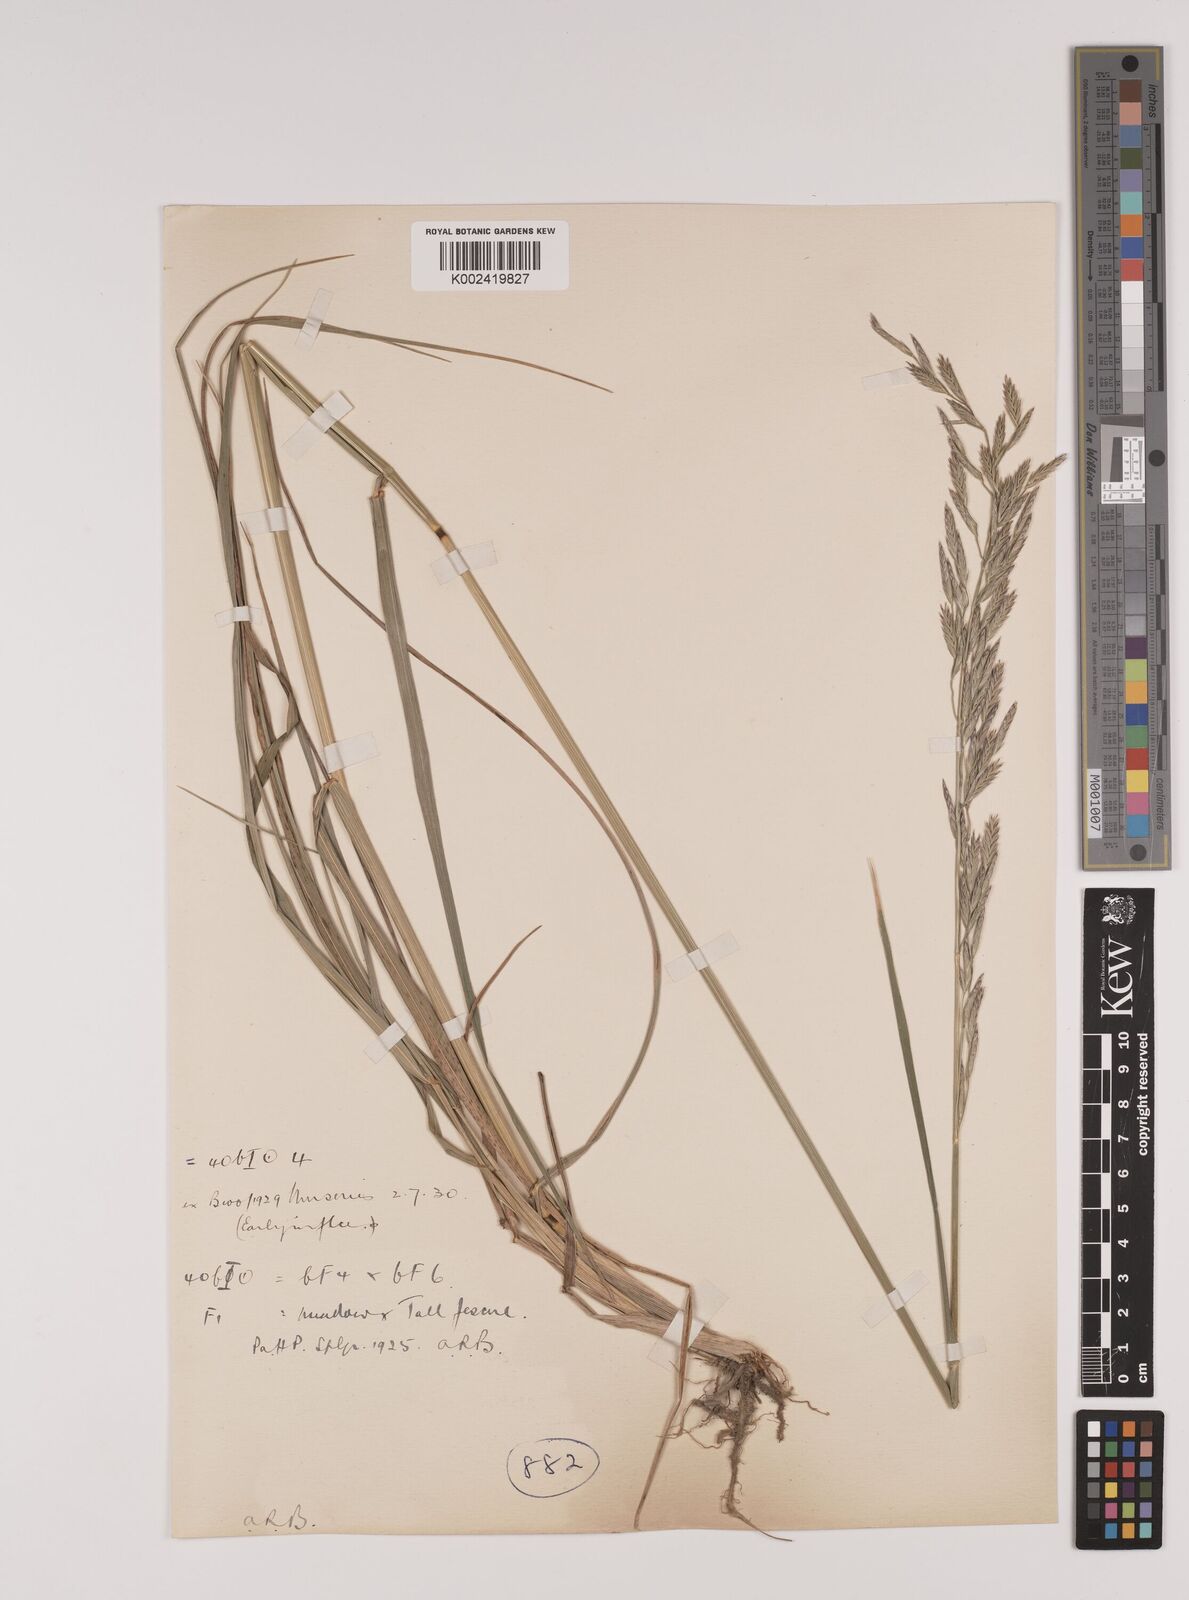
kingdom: Plantae
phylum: Tracheophyta
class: Liliopsida
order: Poales
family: Poaceae
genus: Festuca
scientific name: Festuca rubra
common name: Red fescue
